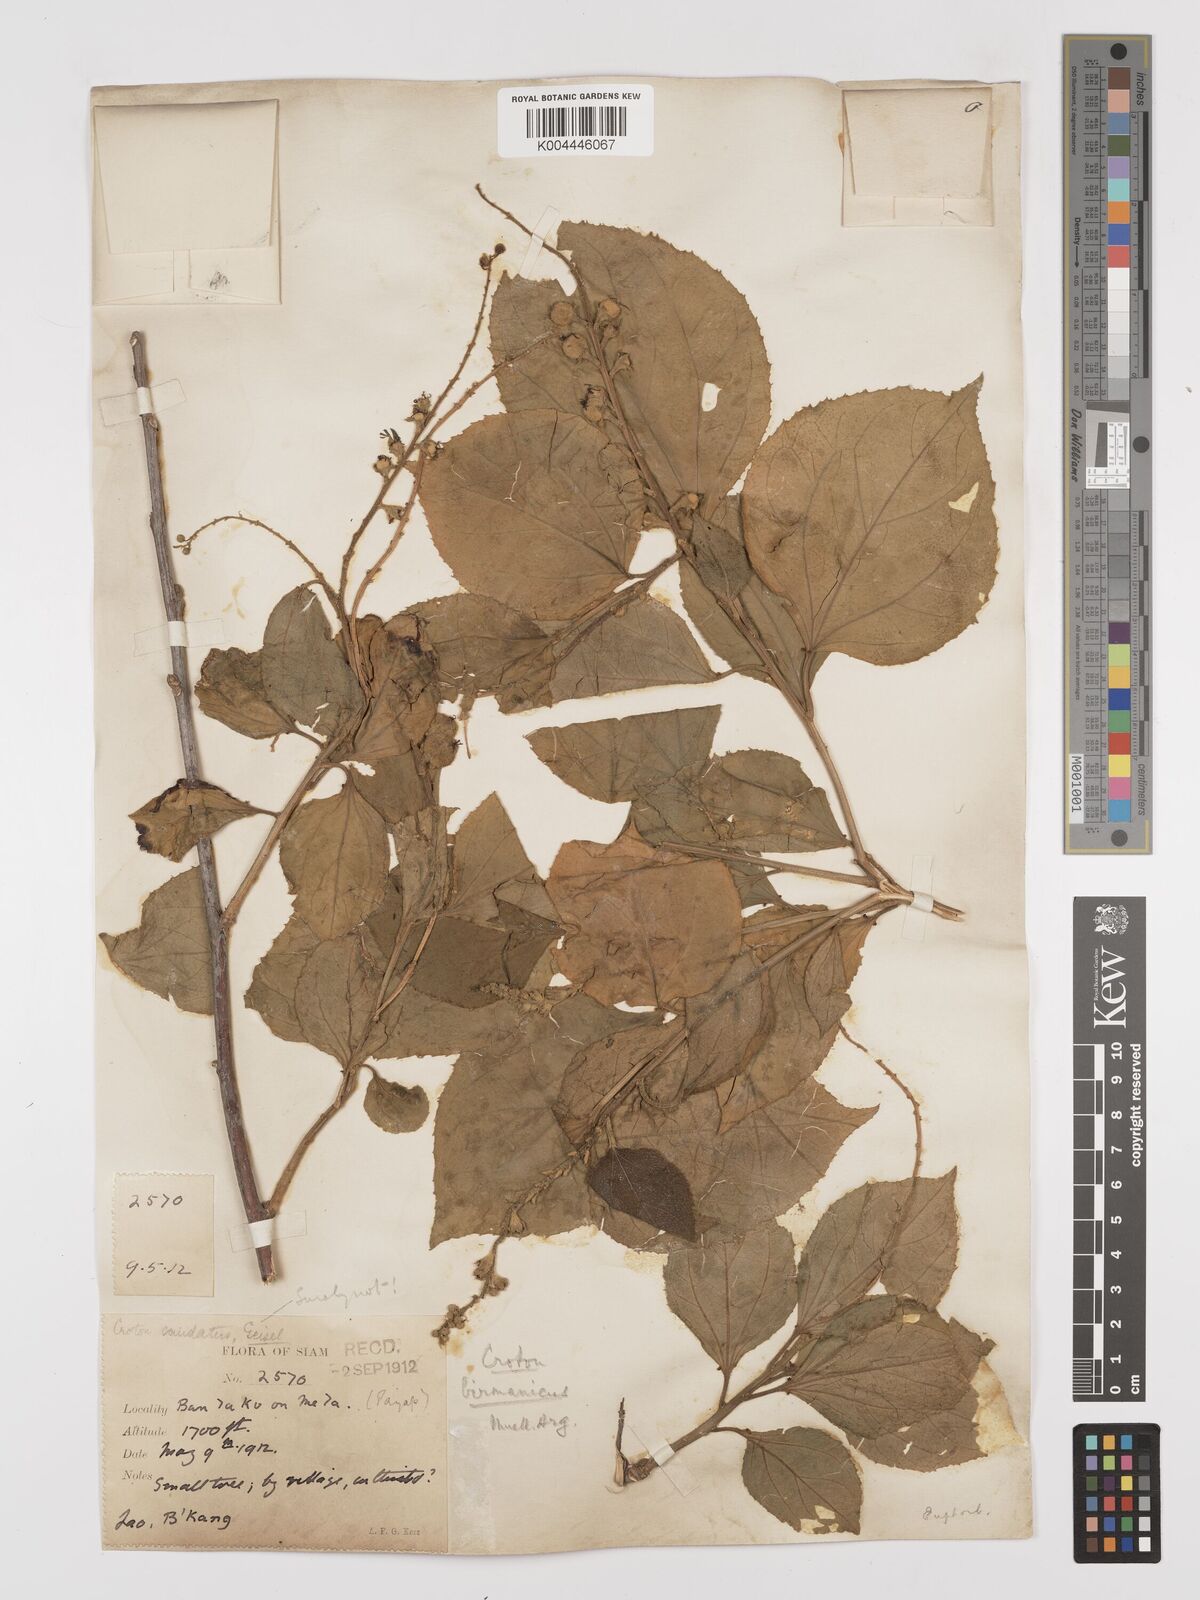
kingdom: Plantae
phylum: Tracheophyta
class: Magnoliopsida
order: Malpighiales
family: Euphorbiaceae
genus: Croton
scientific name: Croton tiglium
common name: Purging croton
